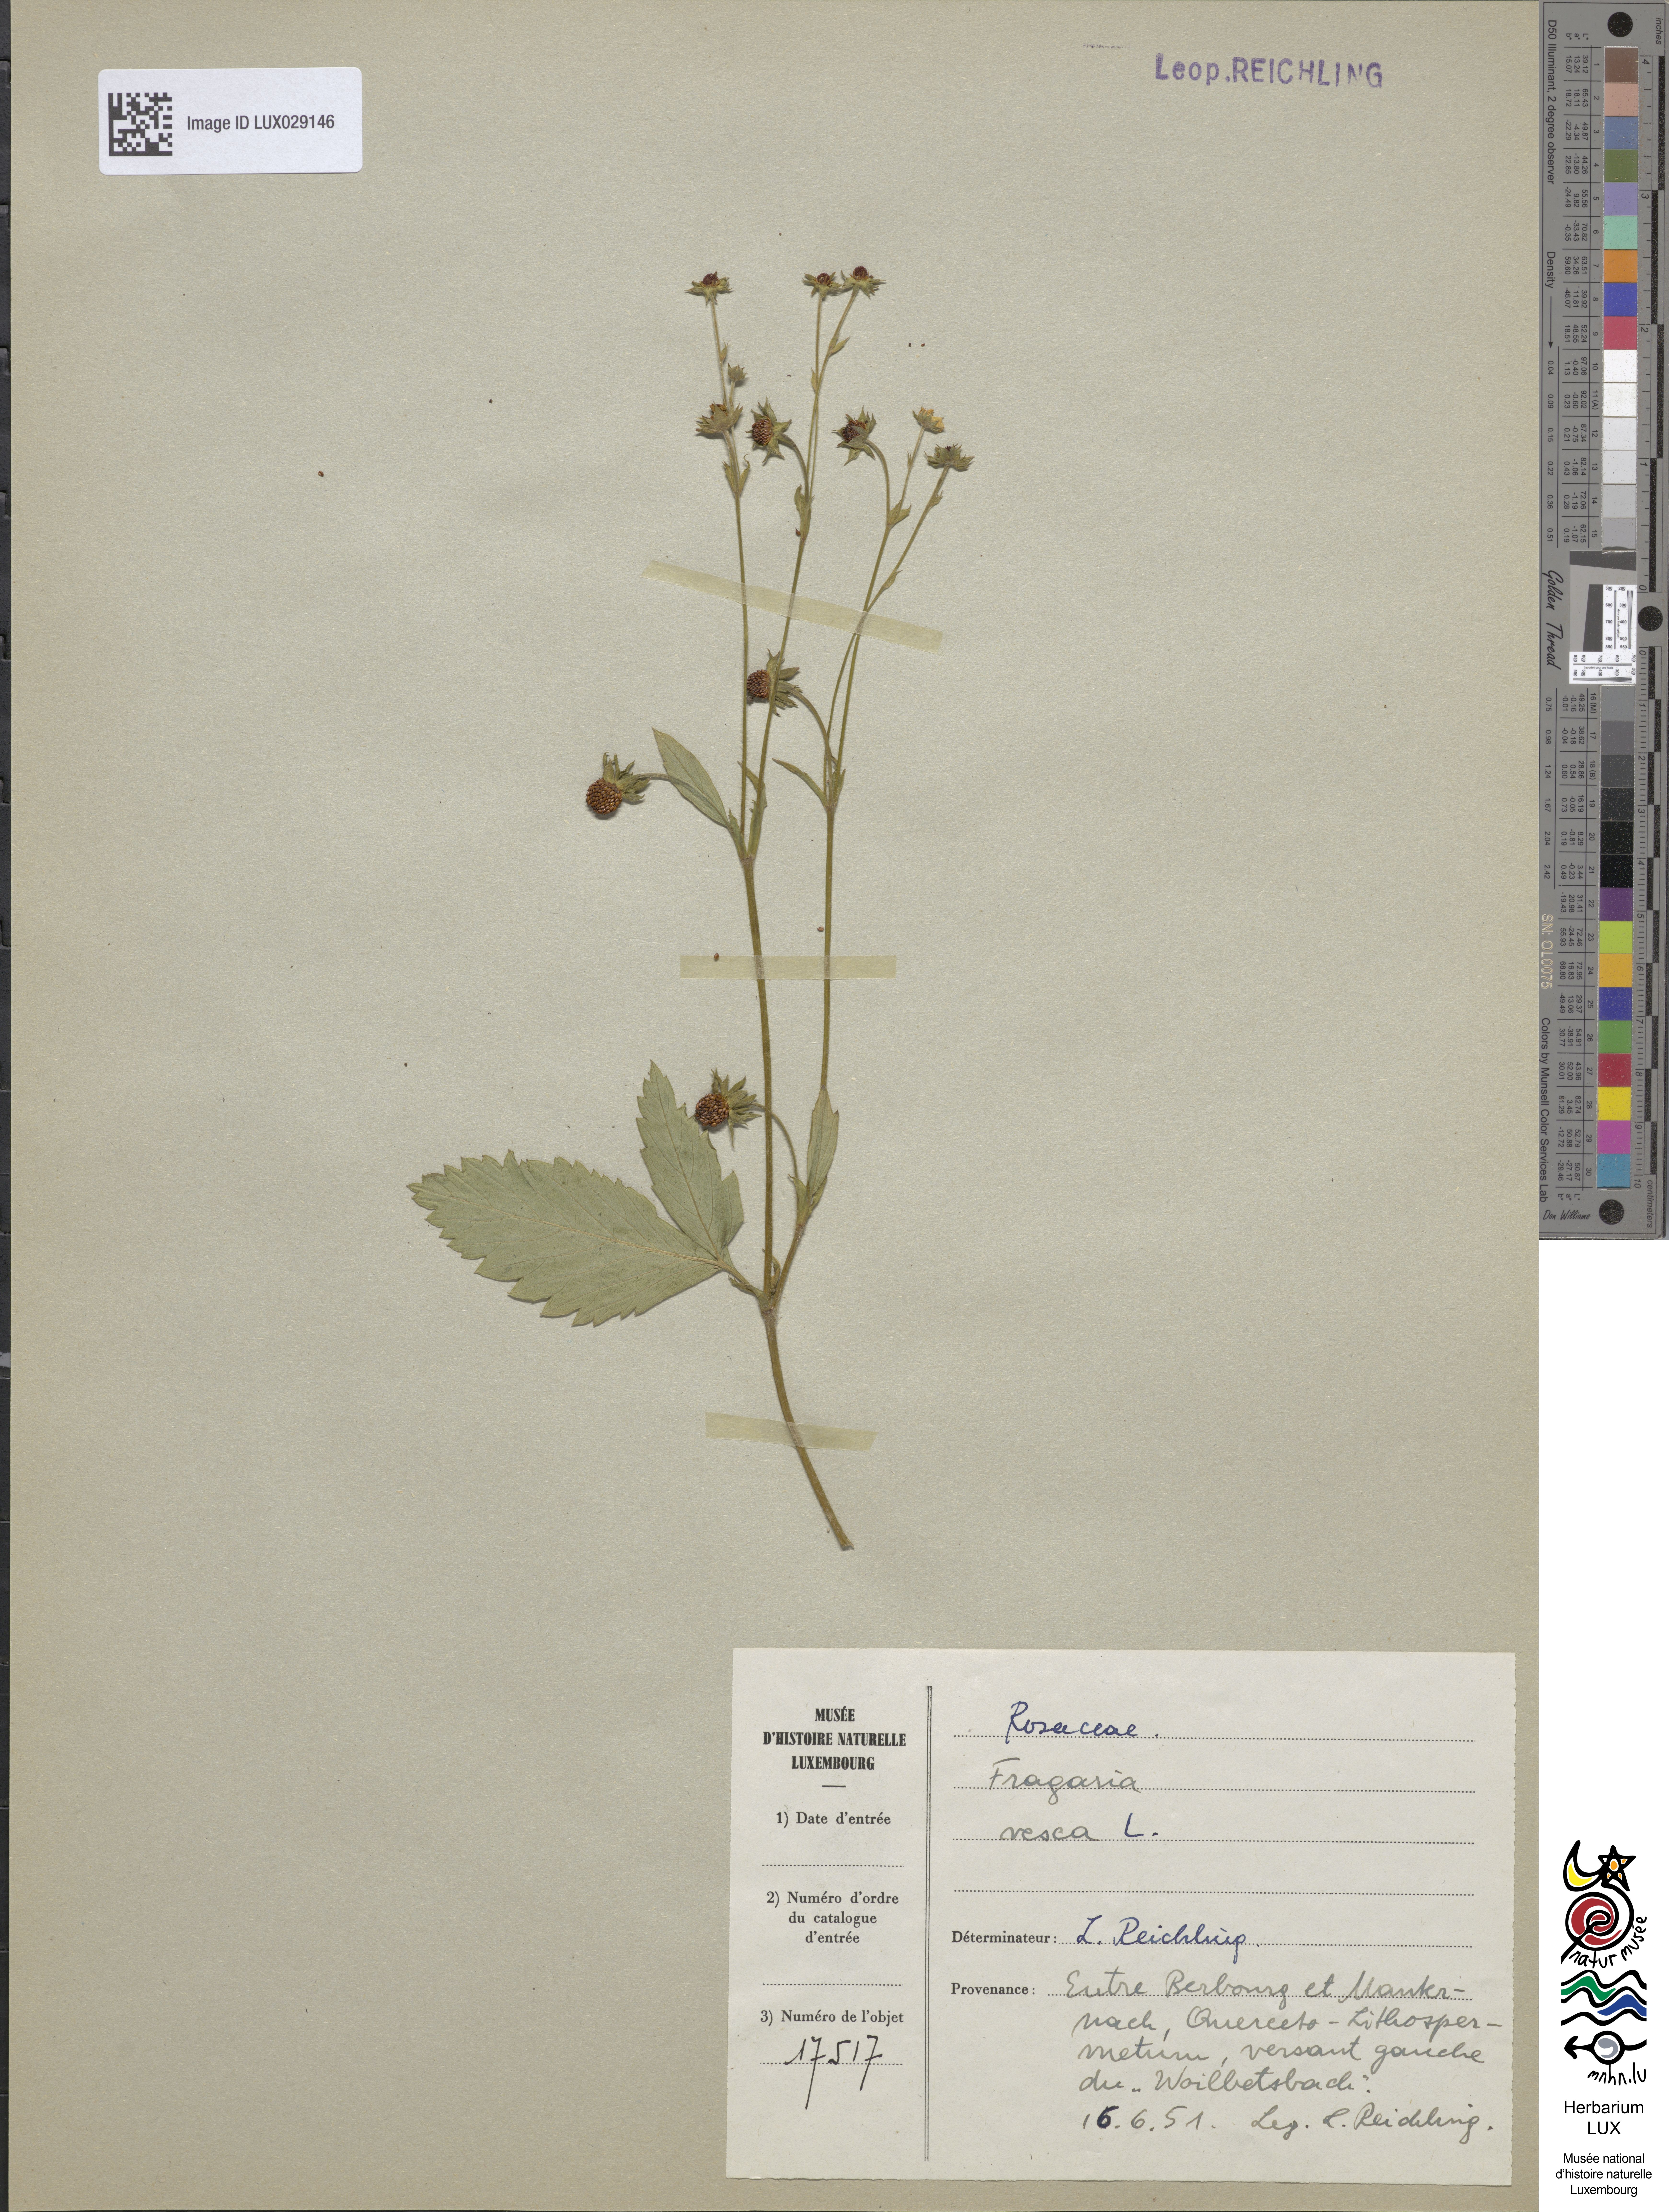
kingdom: Plantae
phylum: Tracheophyta
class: Magnoliopsida
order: Rosales
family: Rosaceae
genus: Fragaria
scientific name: Fragaria vesca
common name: Wild strawberry
